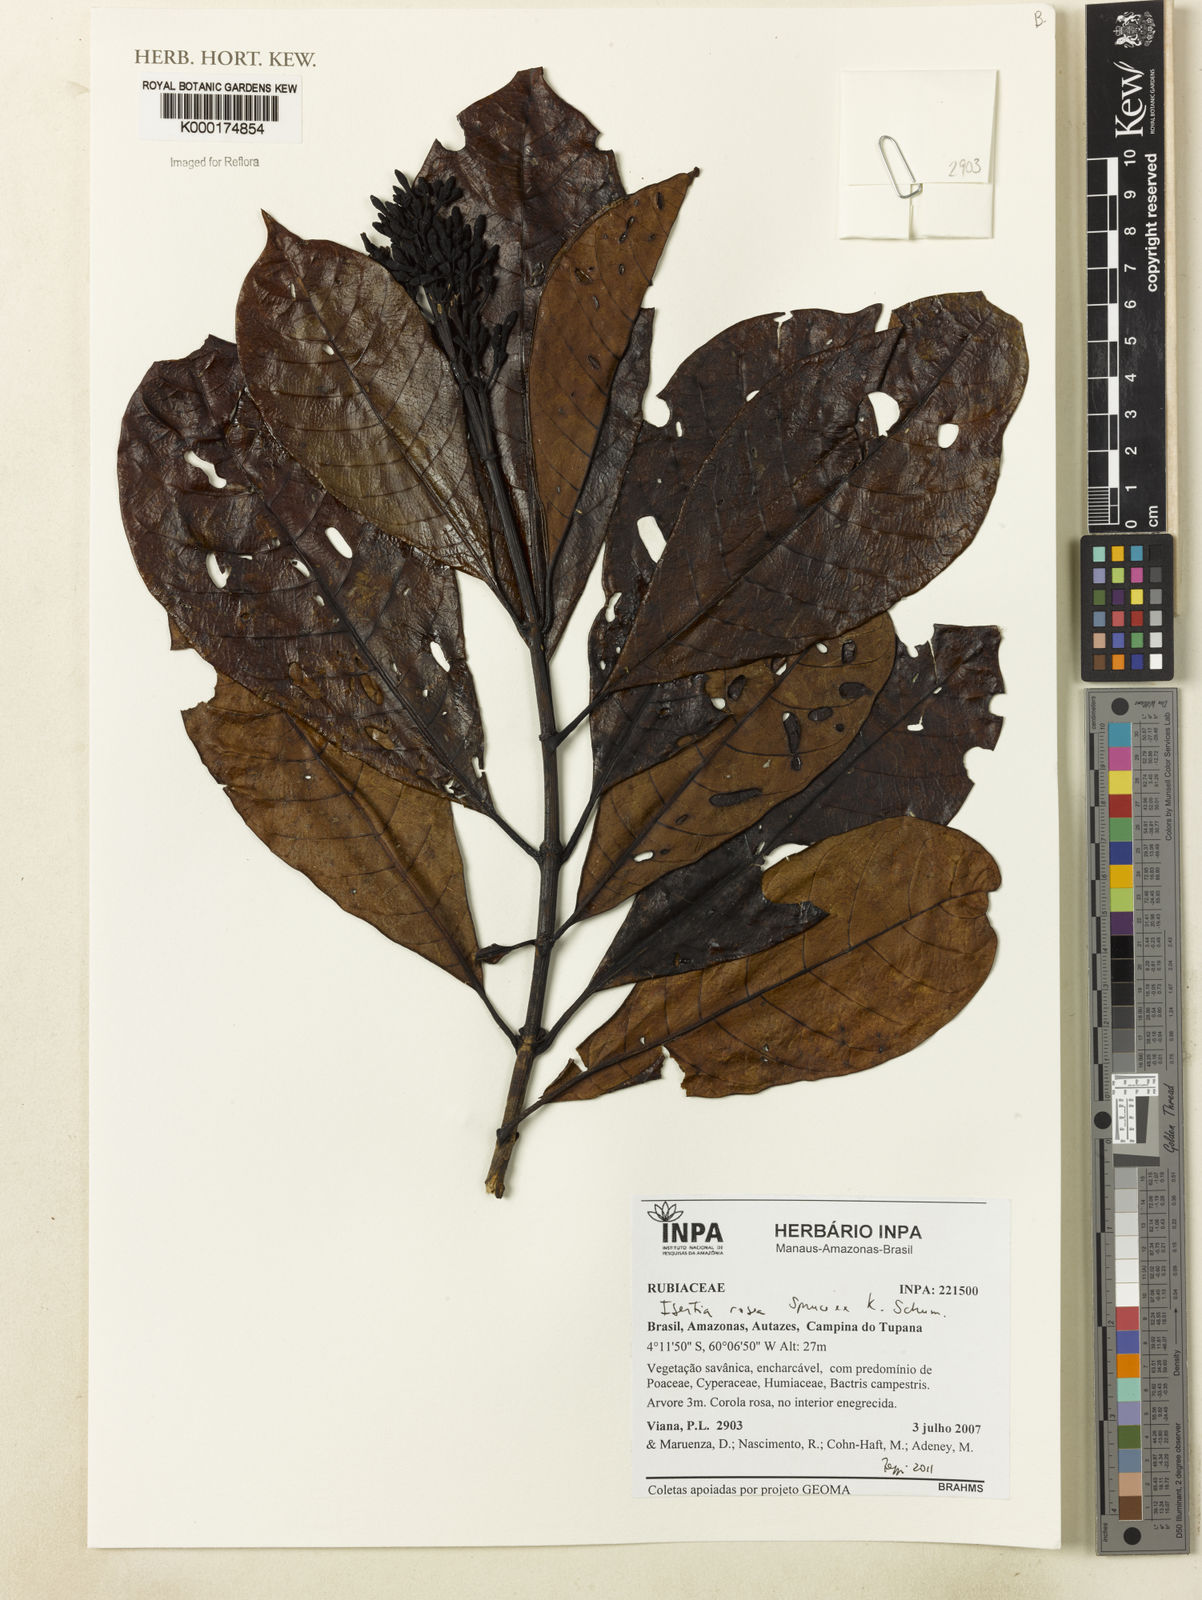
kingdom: Plantae
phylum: Tracheophyta
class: Magnoliopsida
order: Gentianales
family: Rubiaceae
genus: Isertia
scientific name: Isertia rosea
